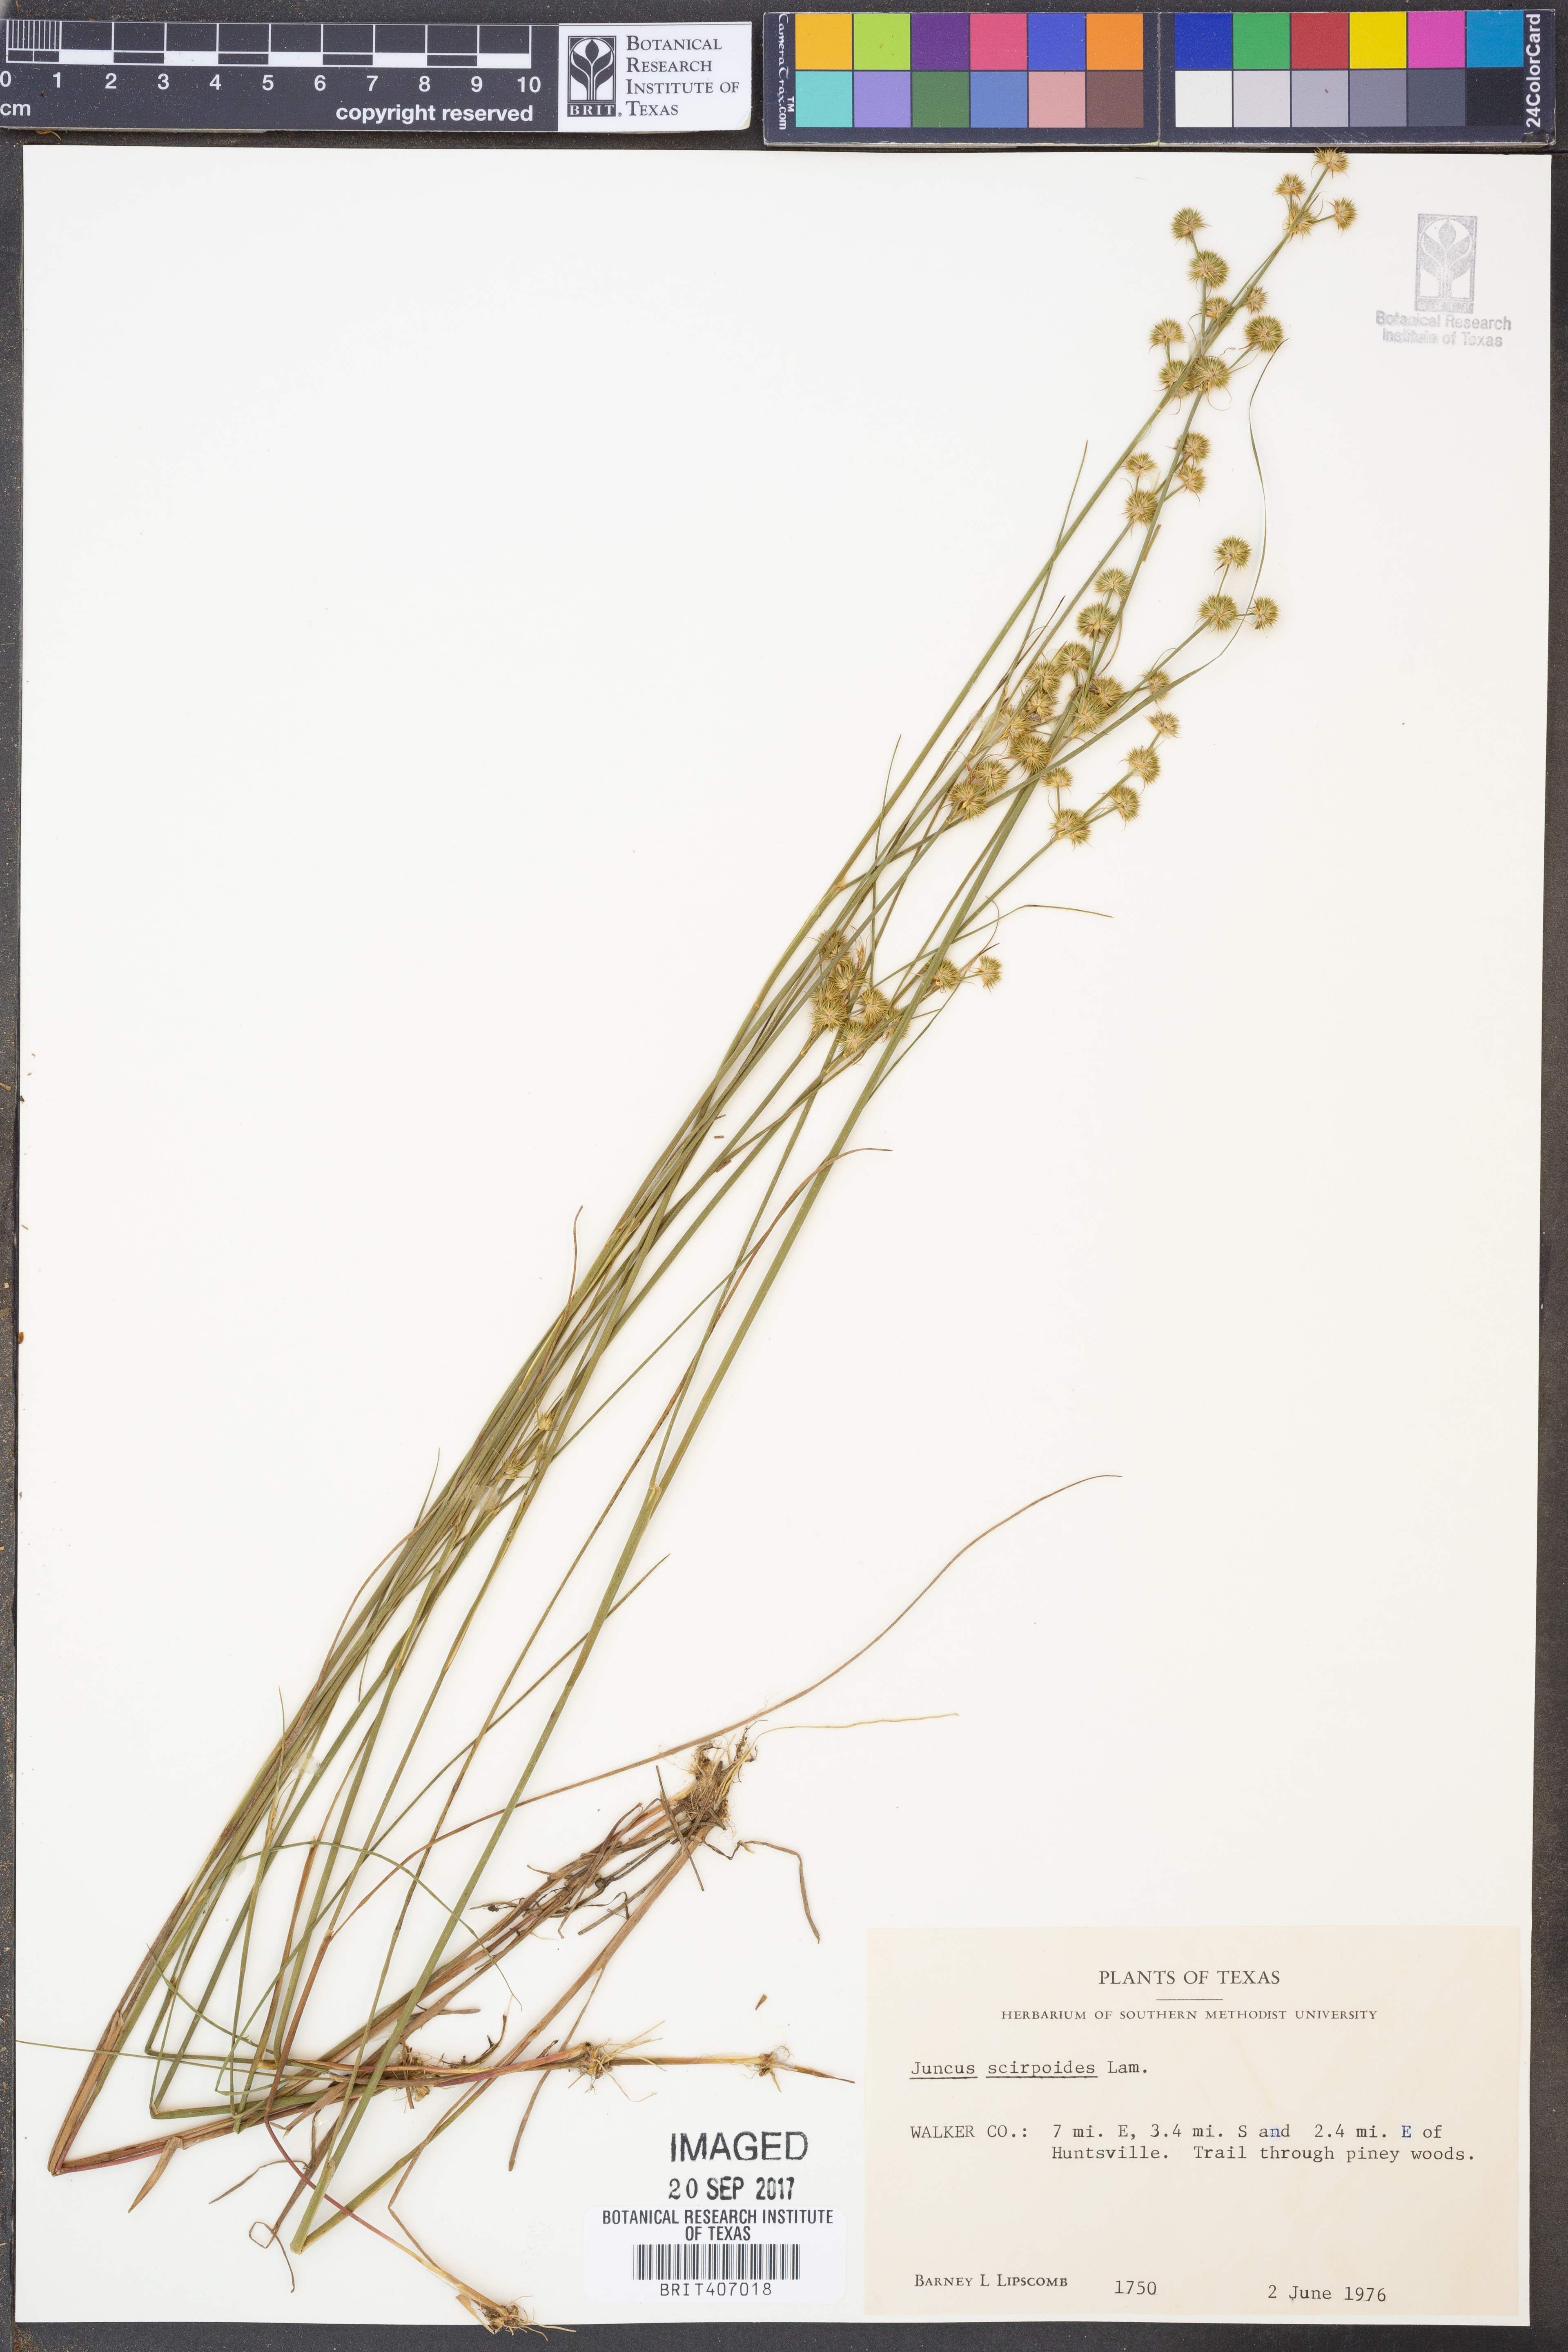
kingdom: Plantae
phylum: Tracheophyta
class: Liliopsida
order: Poales
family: Juncaceae
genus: Juncus
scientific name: Juncus scirpoides
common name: Needlepod rush
